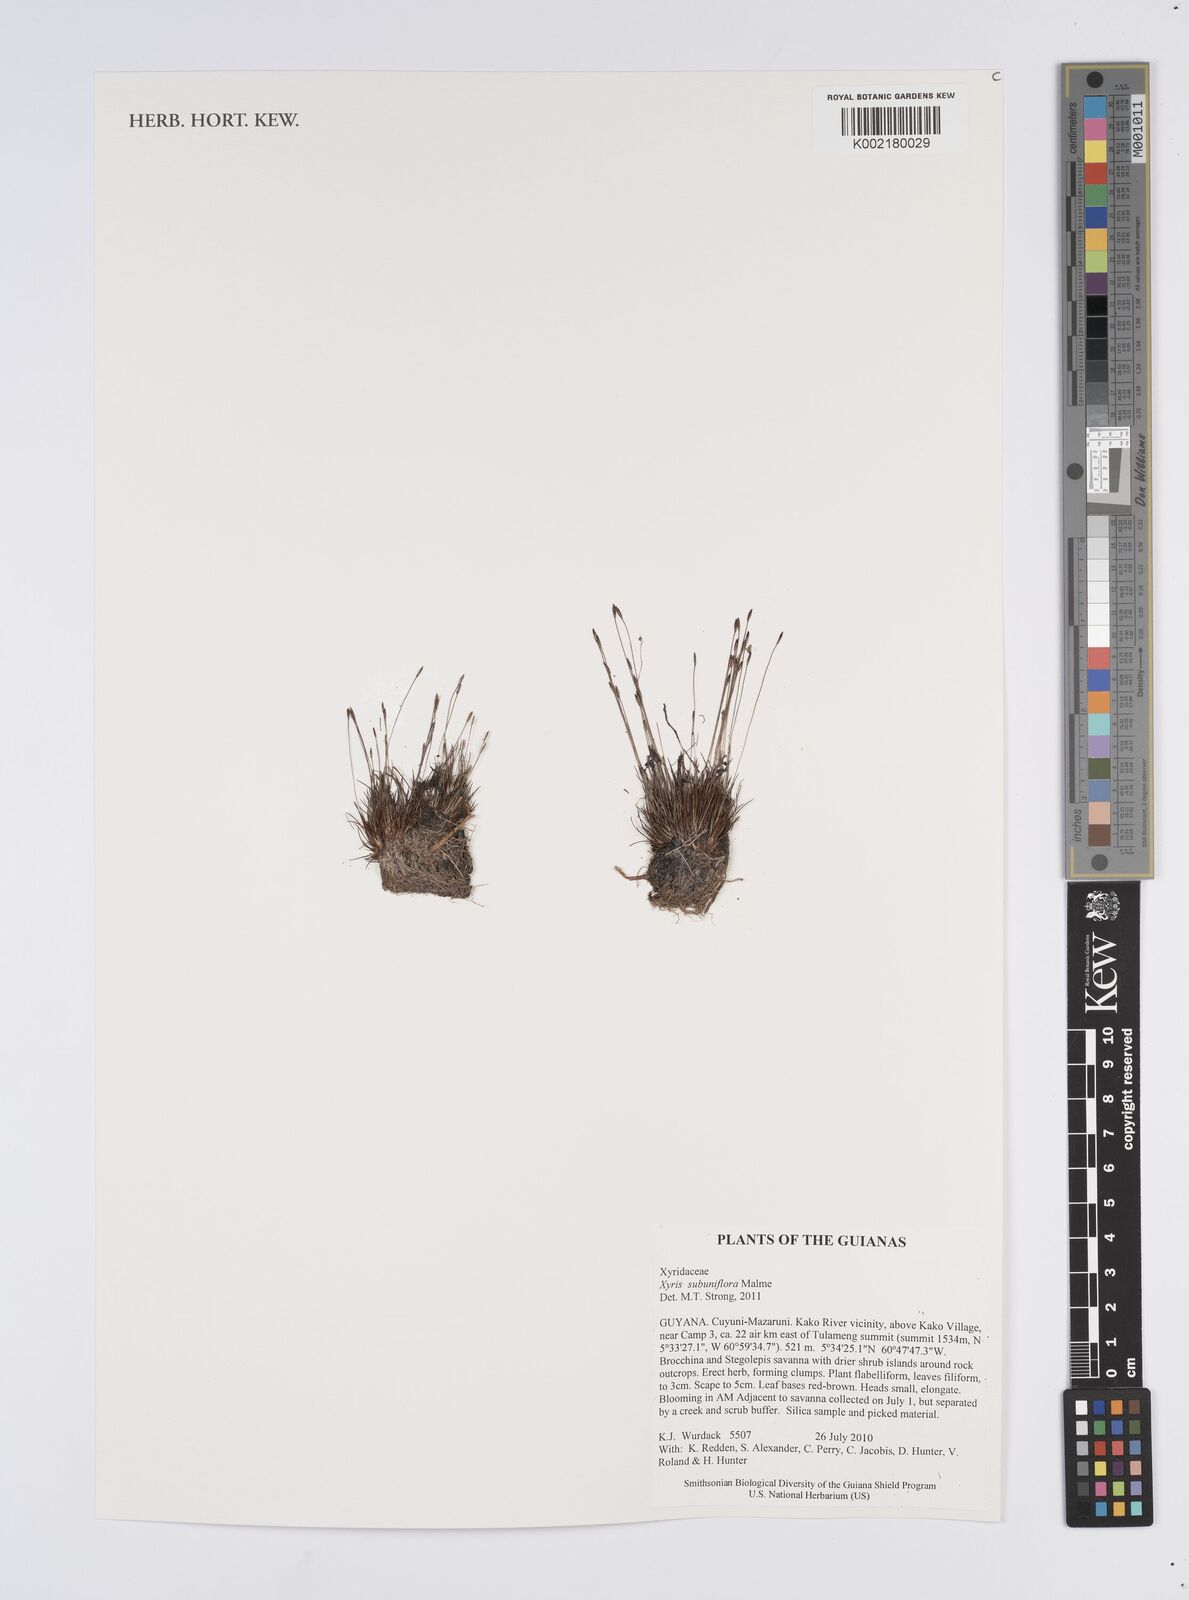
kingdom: Plantae
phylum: Tracheophyta
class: Liliopsida
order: Poales
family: Xyridaceae
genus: Xyris
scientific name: Xyris subuniflora
